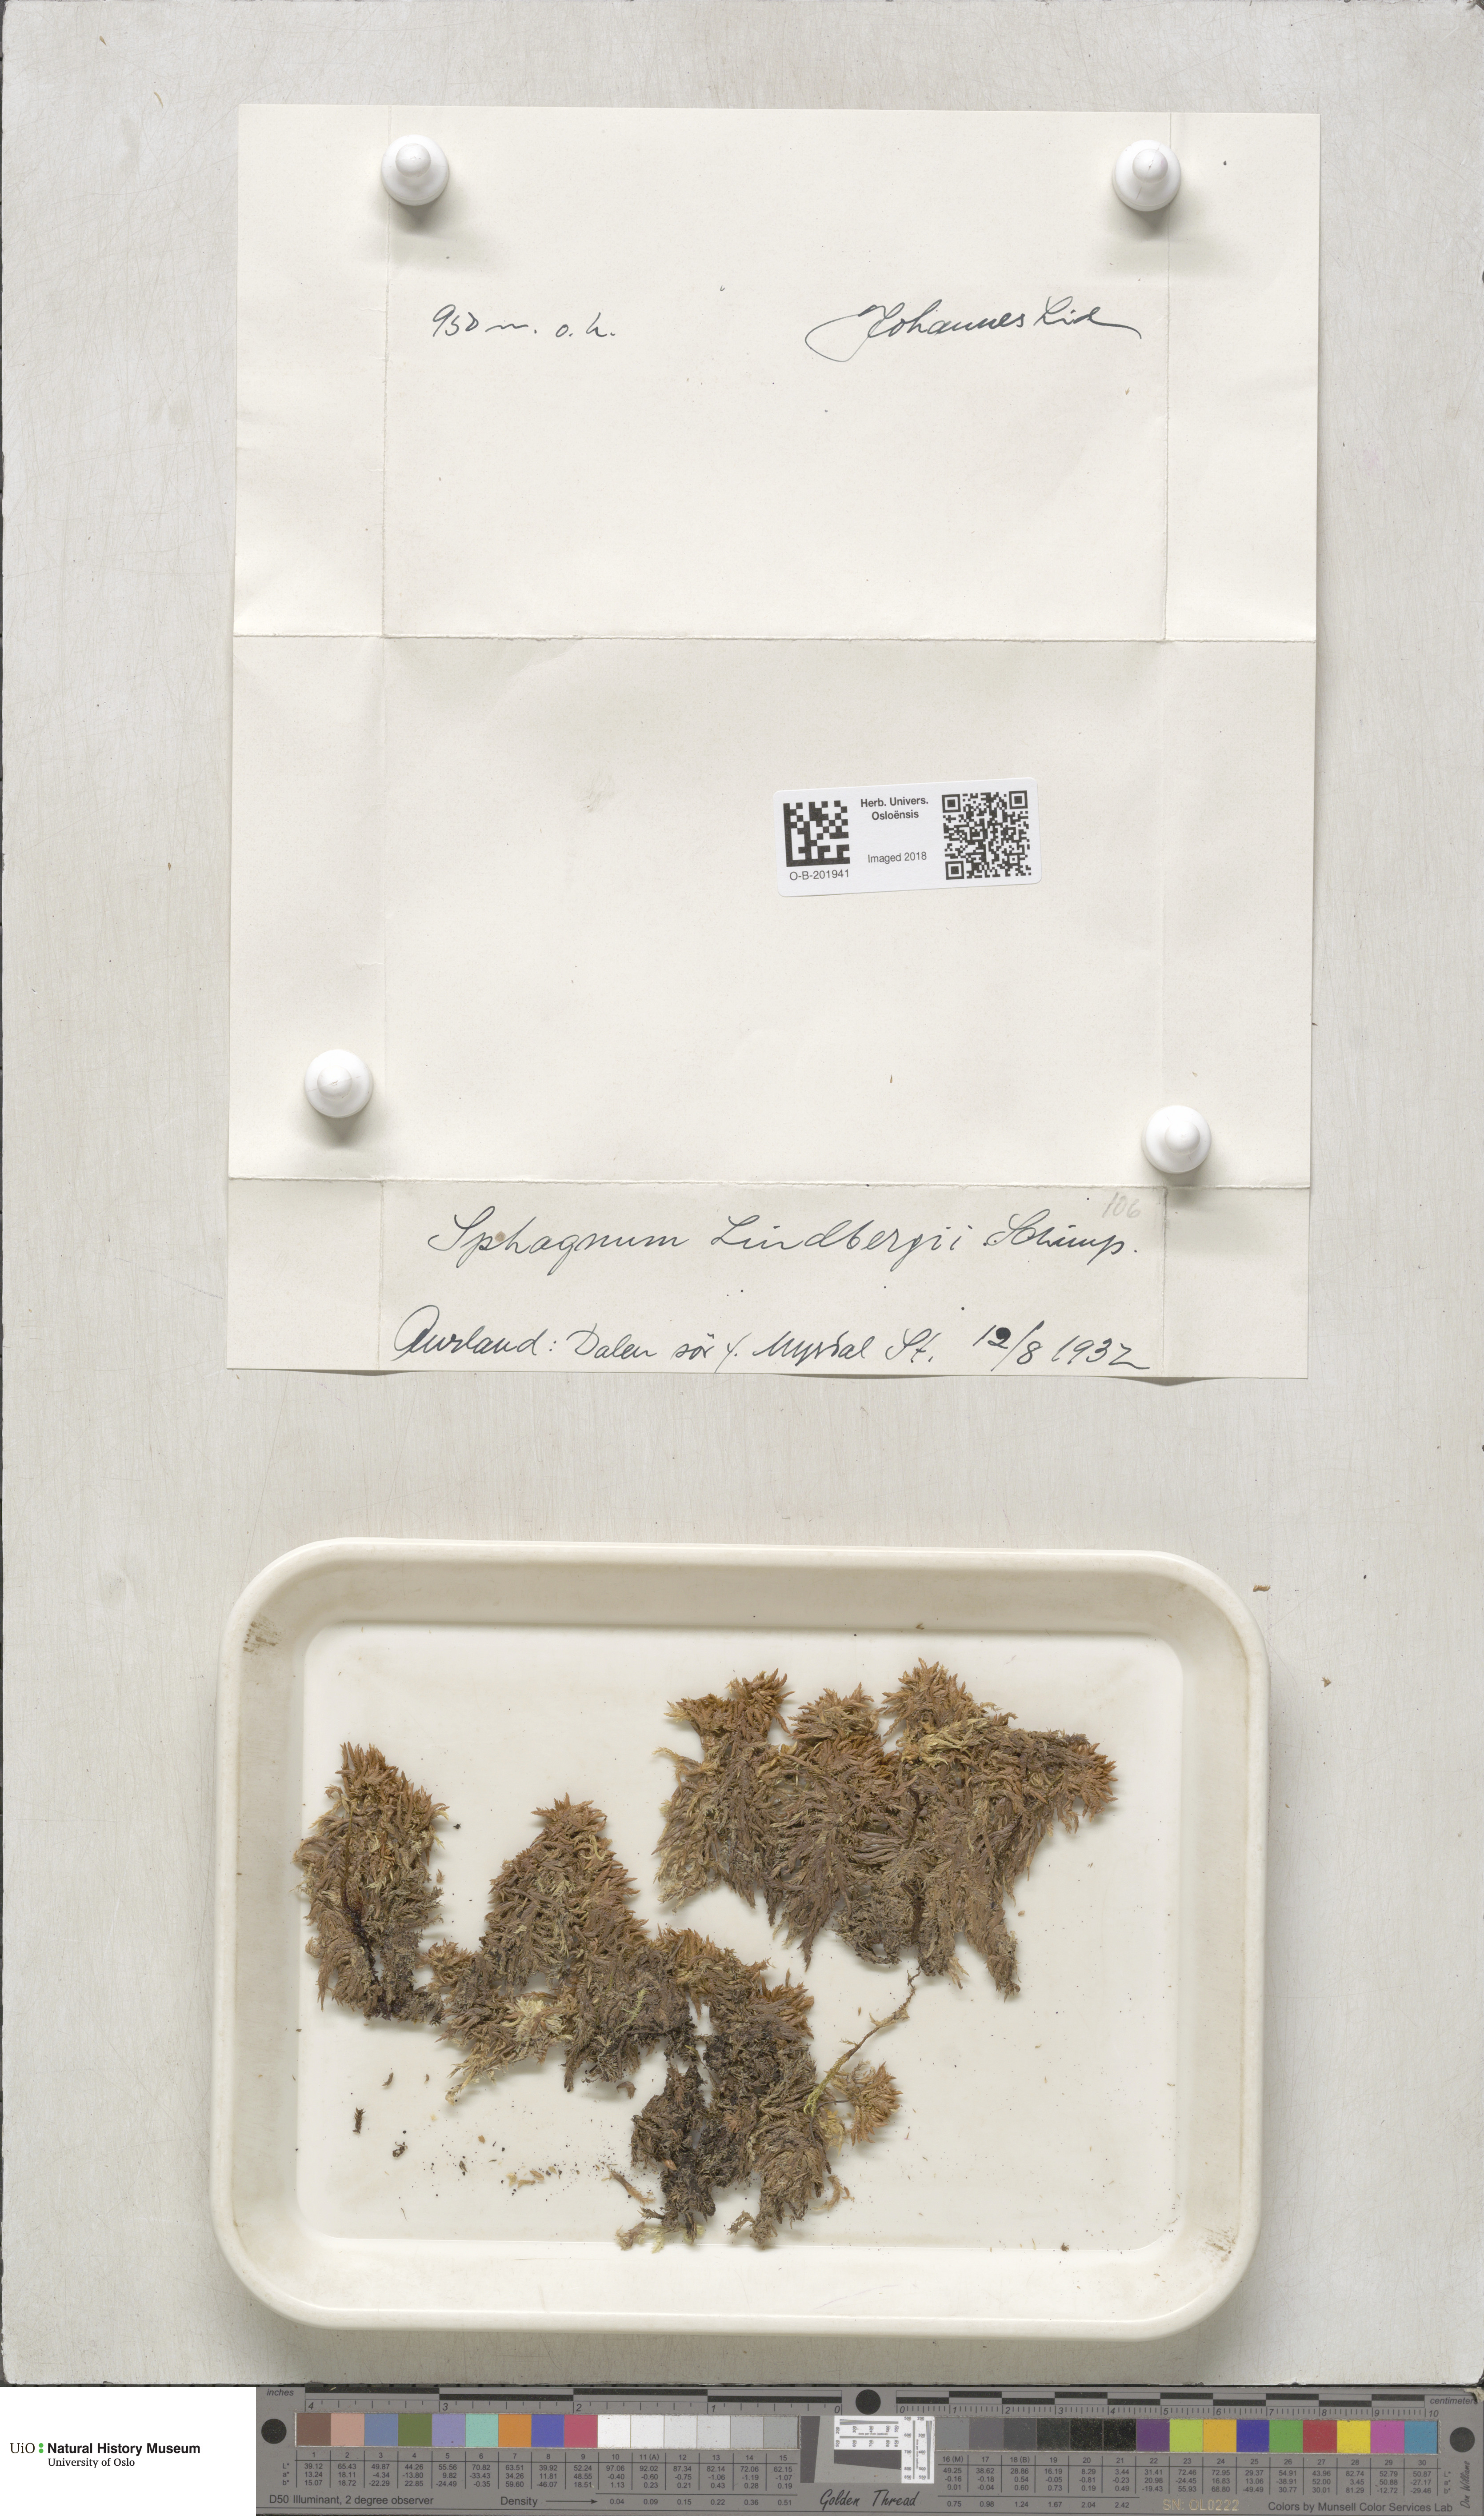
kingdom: Plantae
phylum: Bryophyta
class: Sphagnopsida
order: Sphagnales
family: Sphagnaceae
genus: Sphagnum
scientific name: Sphagnum lindbergii
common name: Lindberg's peat moss
